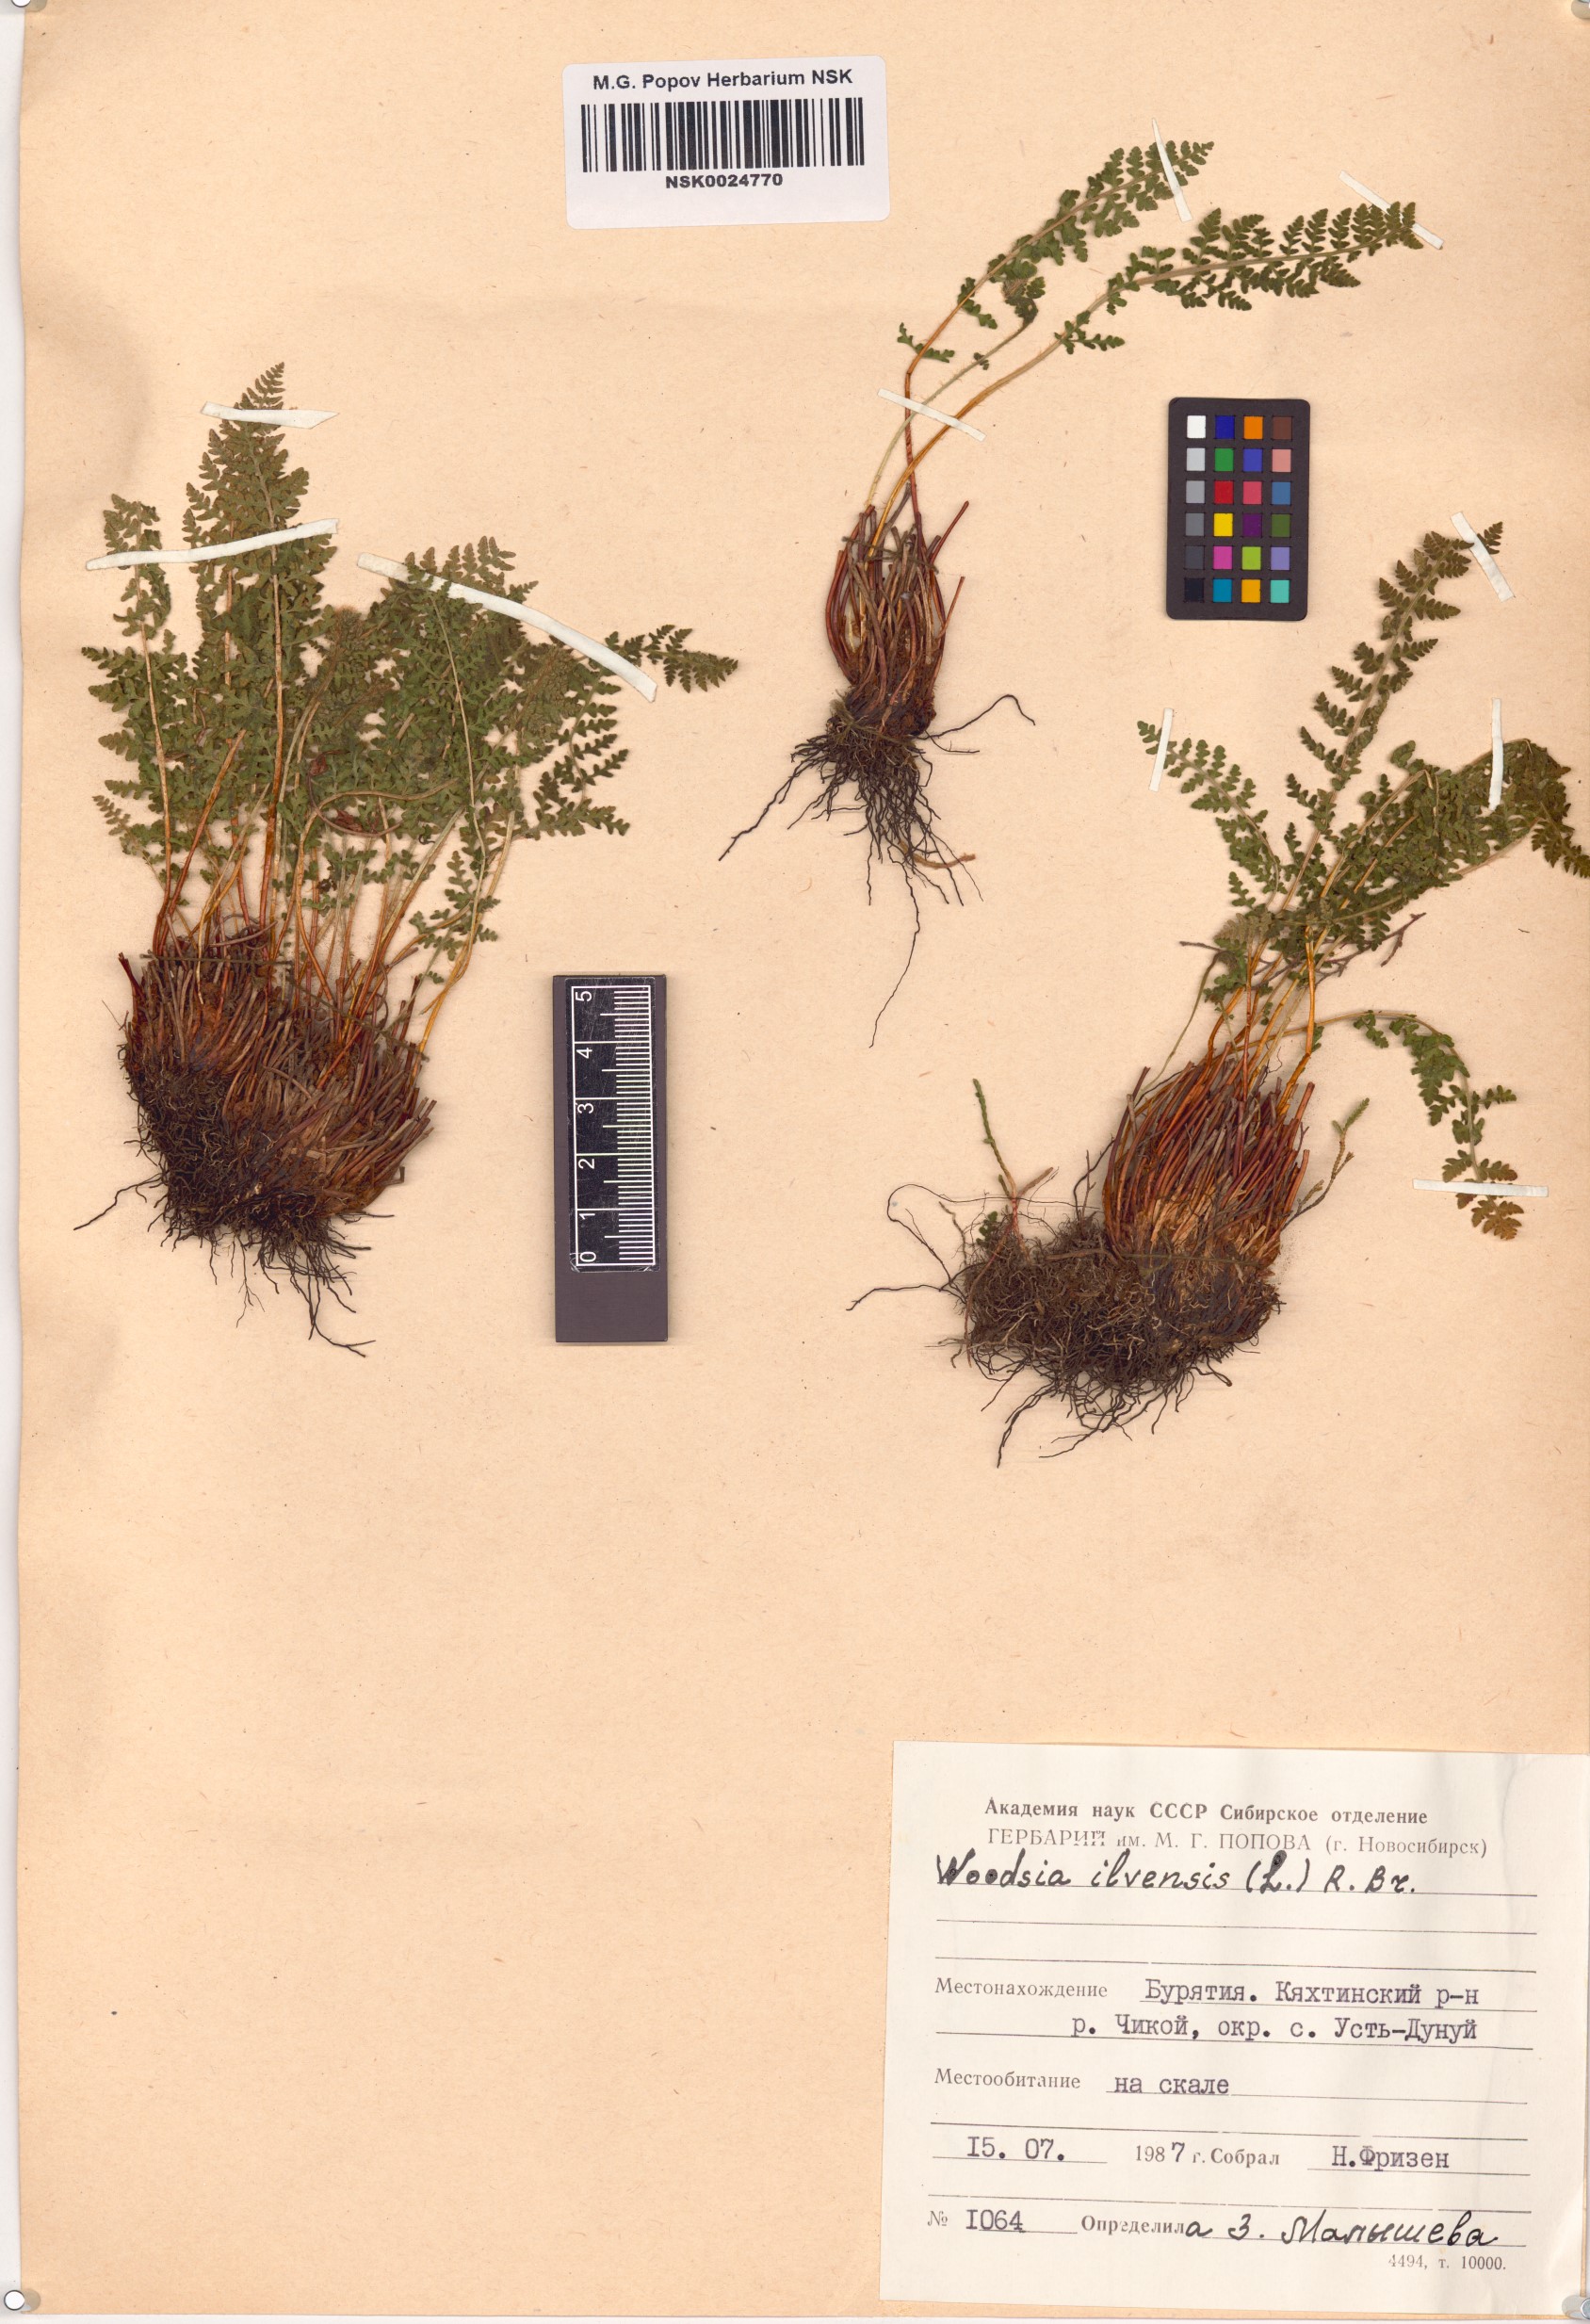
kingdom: Plantae
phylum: Tracheophyta
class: Polypodiopsida
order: Polypodiales
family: Woodsiaceae
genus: Woodsia
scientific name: Woodsia ilvensis
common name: Fragrant woodsia
